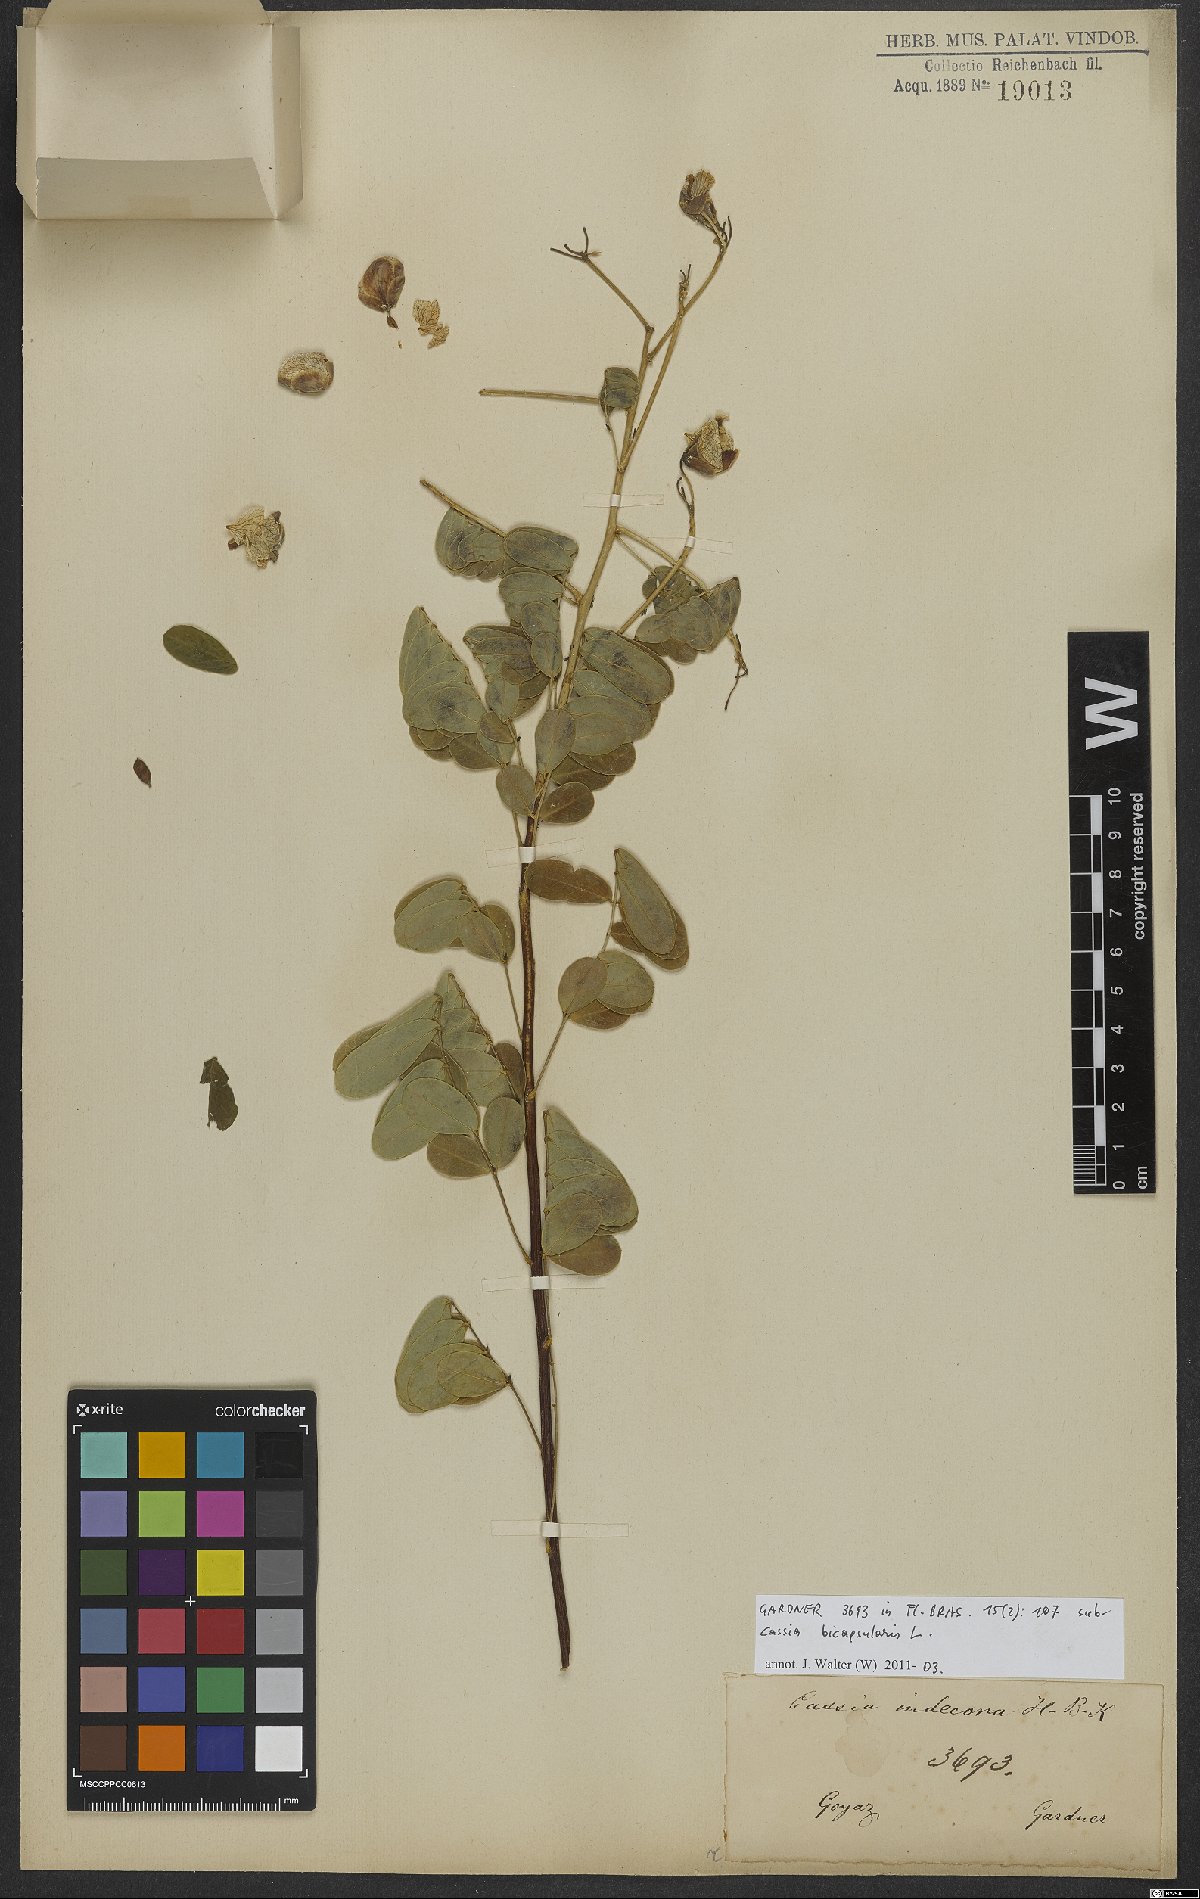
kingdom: Plantae
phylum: Tracheophyta
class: Magnoliopsida
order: Fabales
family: Fabaceae
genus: Senna
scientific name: Senna bicapsularis
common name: Christmasbush
